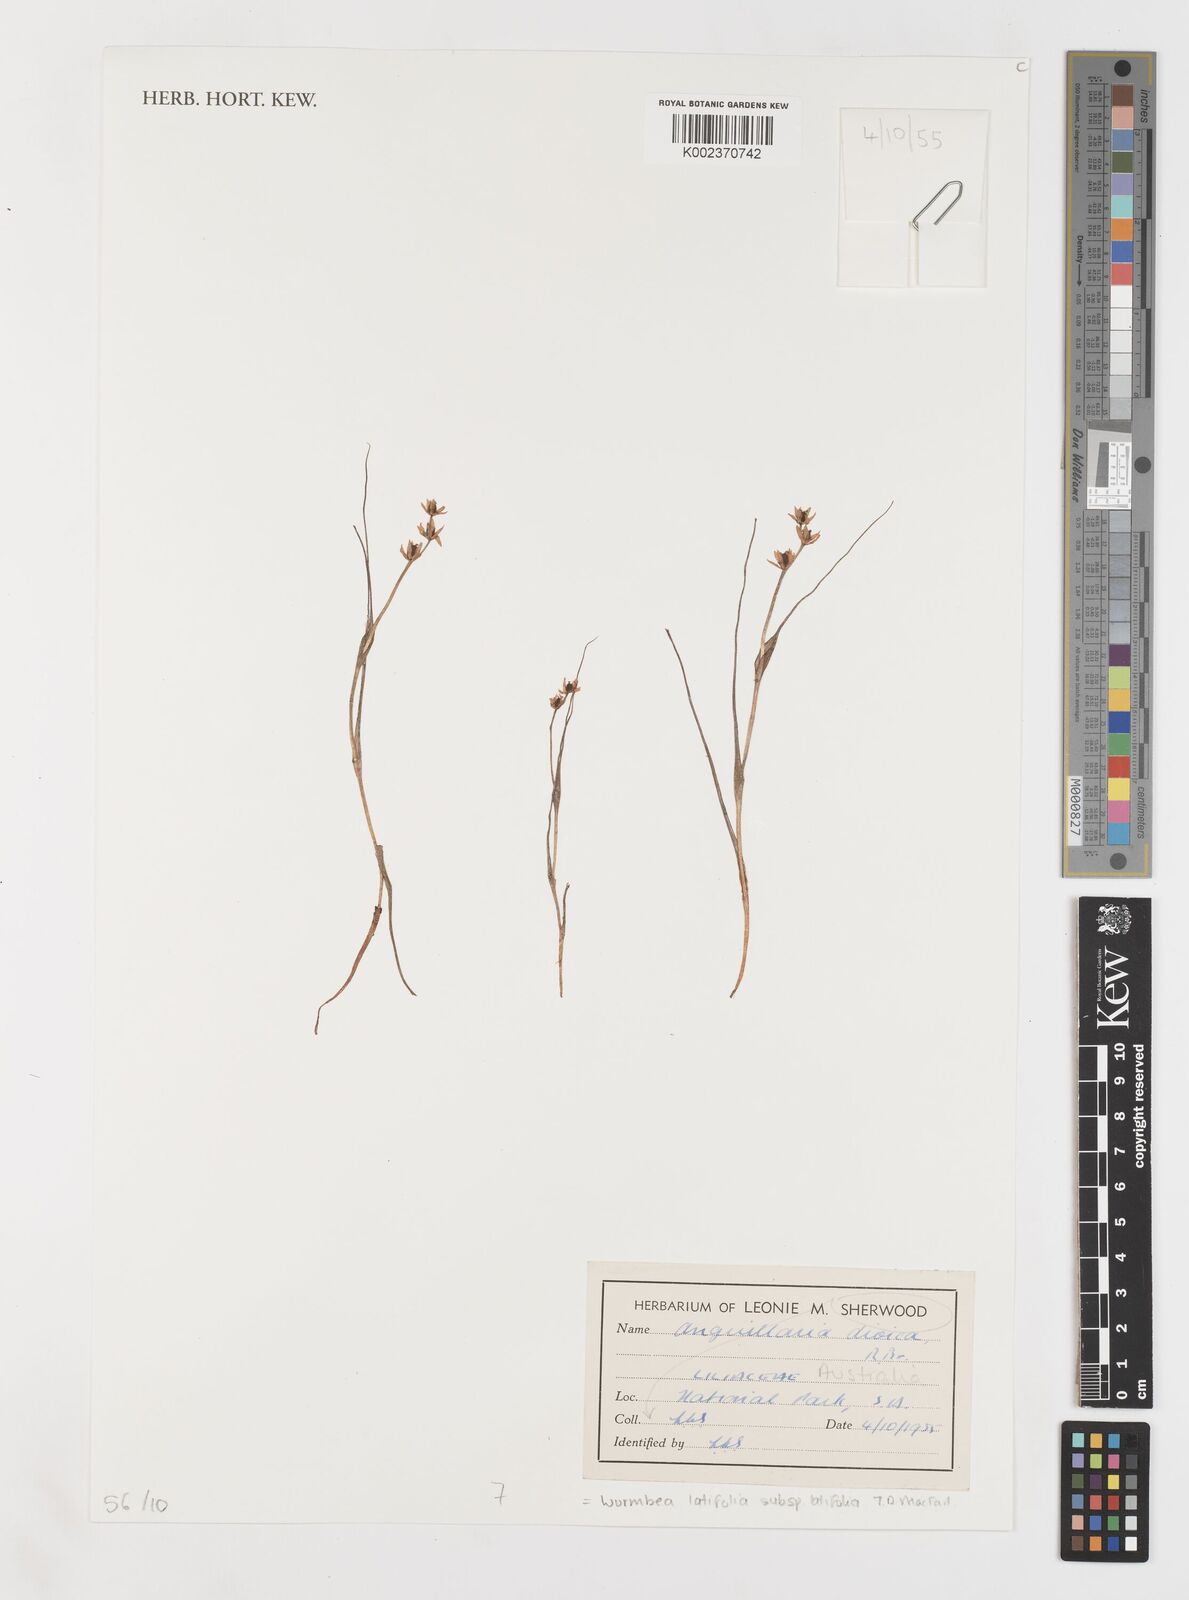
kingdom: Plantae
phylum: Tracheophyta
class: Liliopsida
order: Liliales
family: Colchicaceae
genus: Wurmbea
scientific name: Wurmbea latifolia
